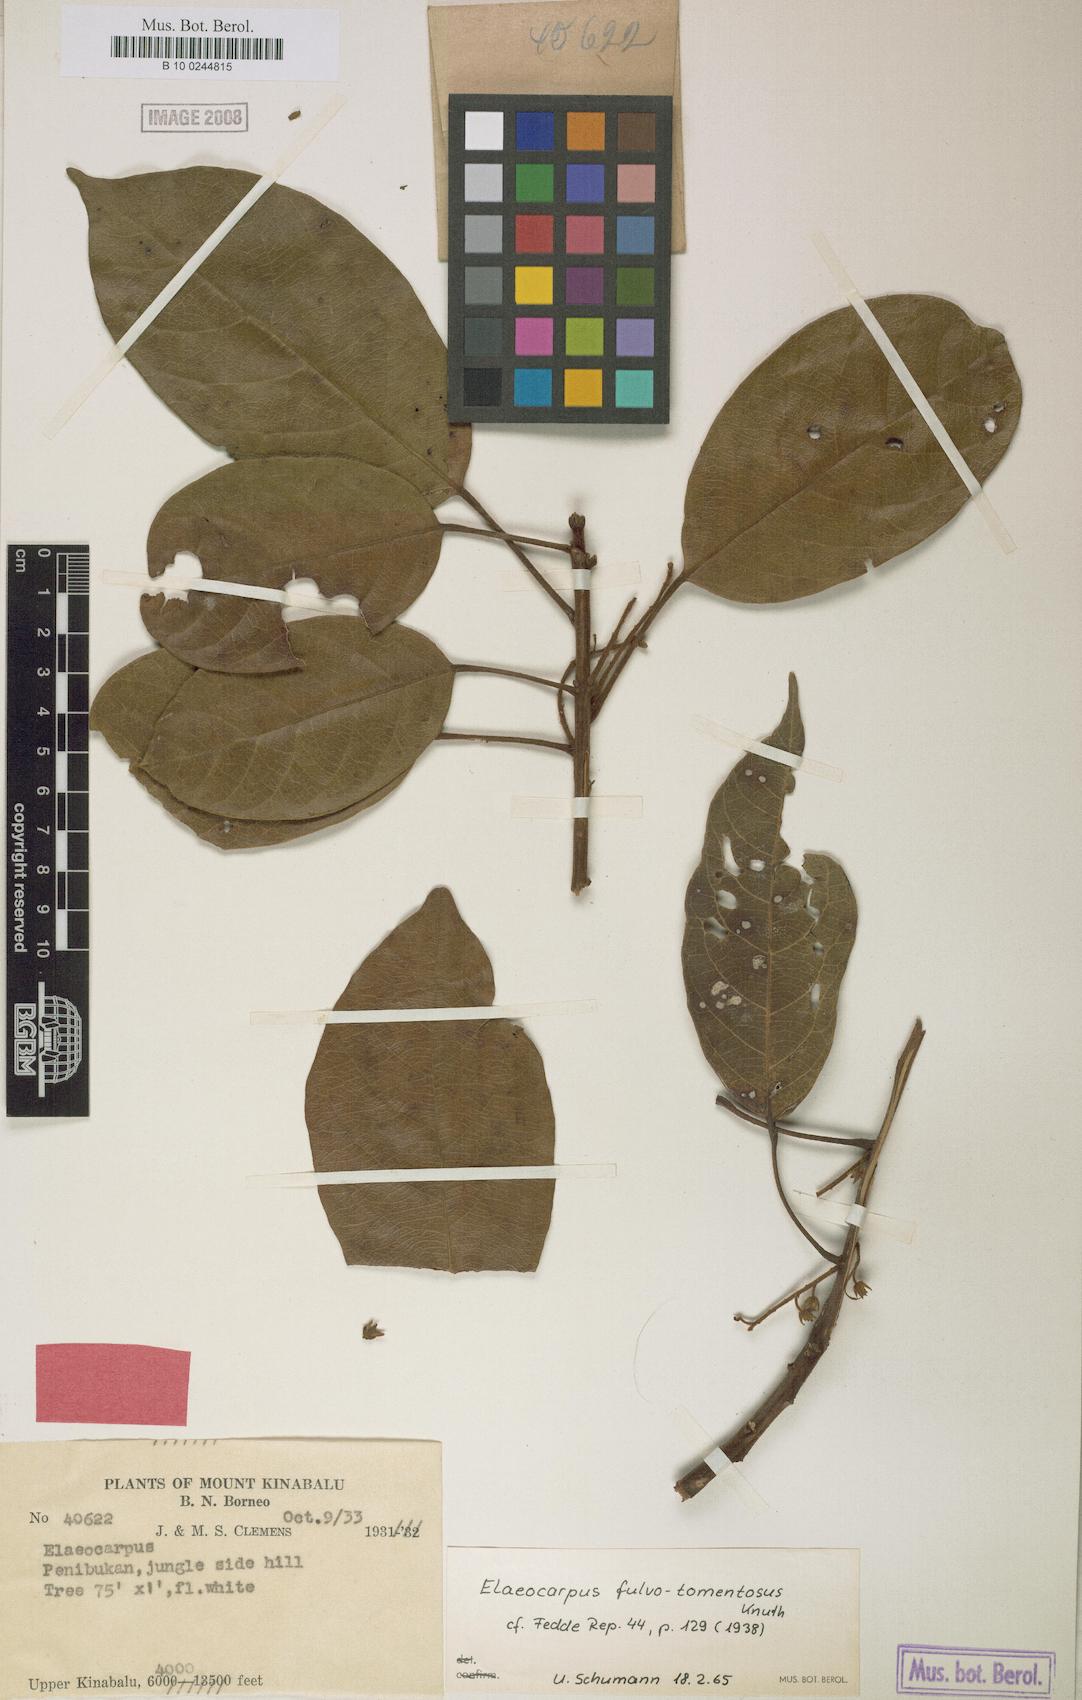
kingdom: Plantae
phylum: Tracheophyta
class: Magnoliopsida
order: Oxalidales
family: Elaeocarpaceae
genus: Elaeocarpus
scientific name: Elaeocarpus ferrugineus
